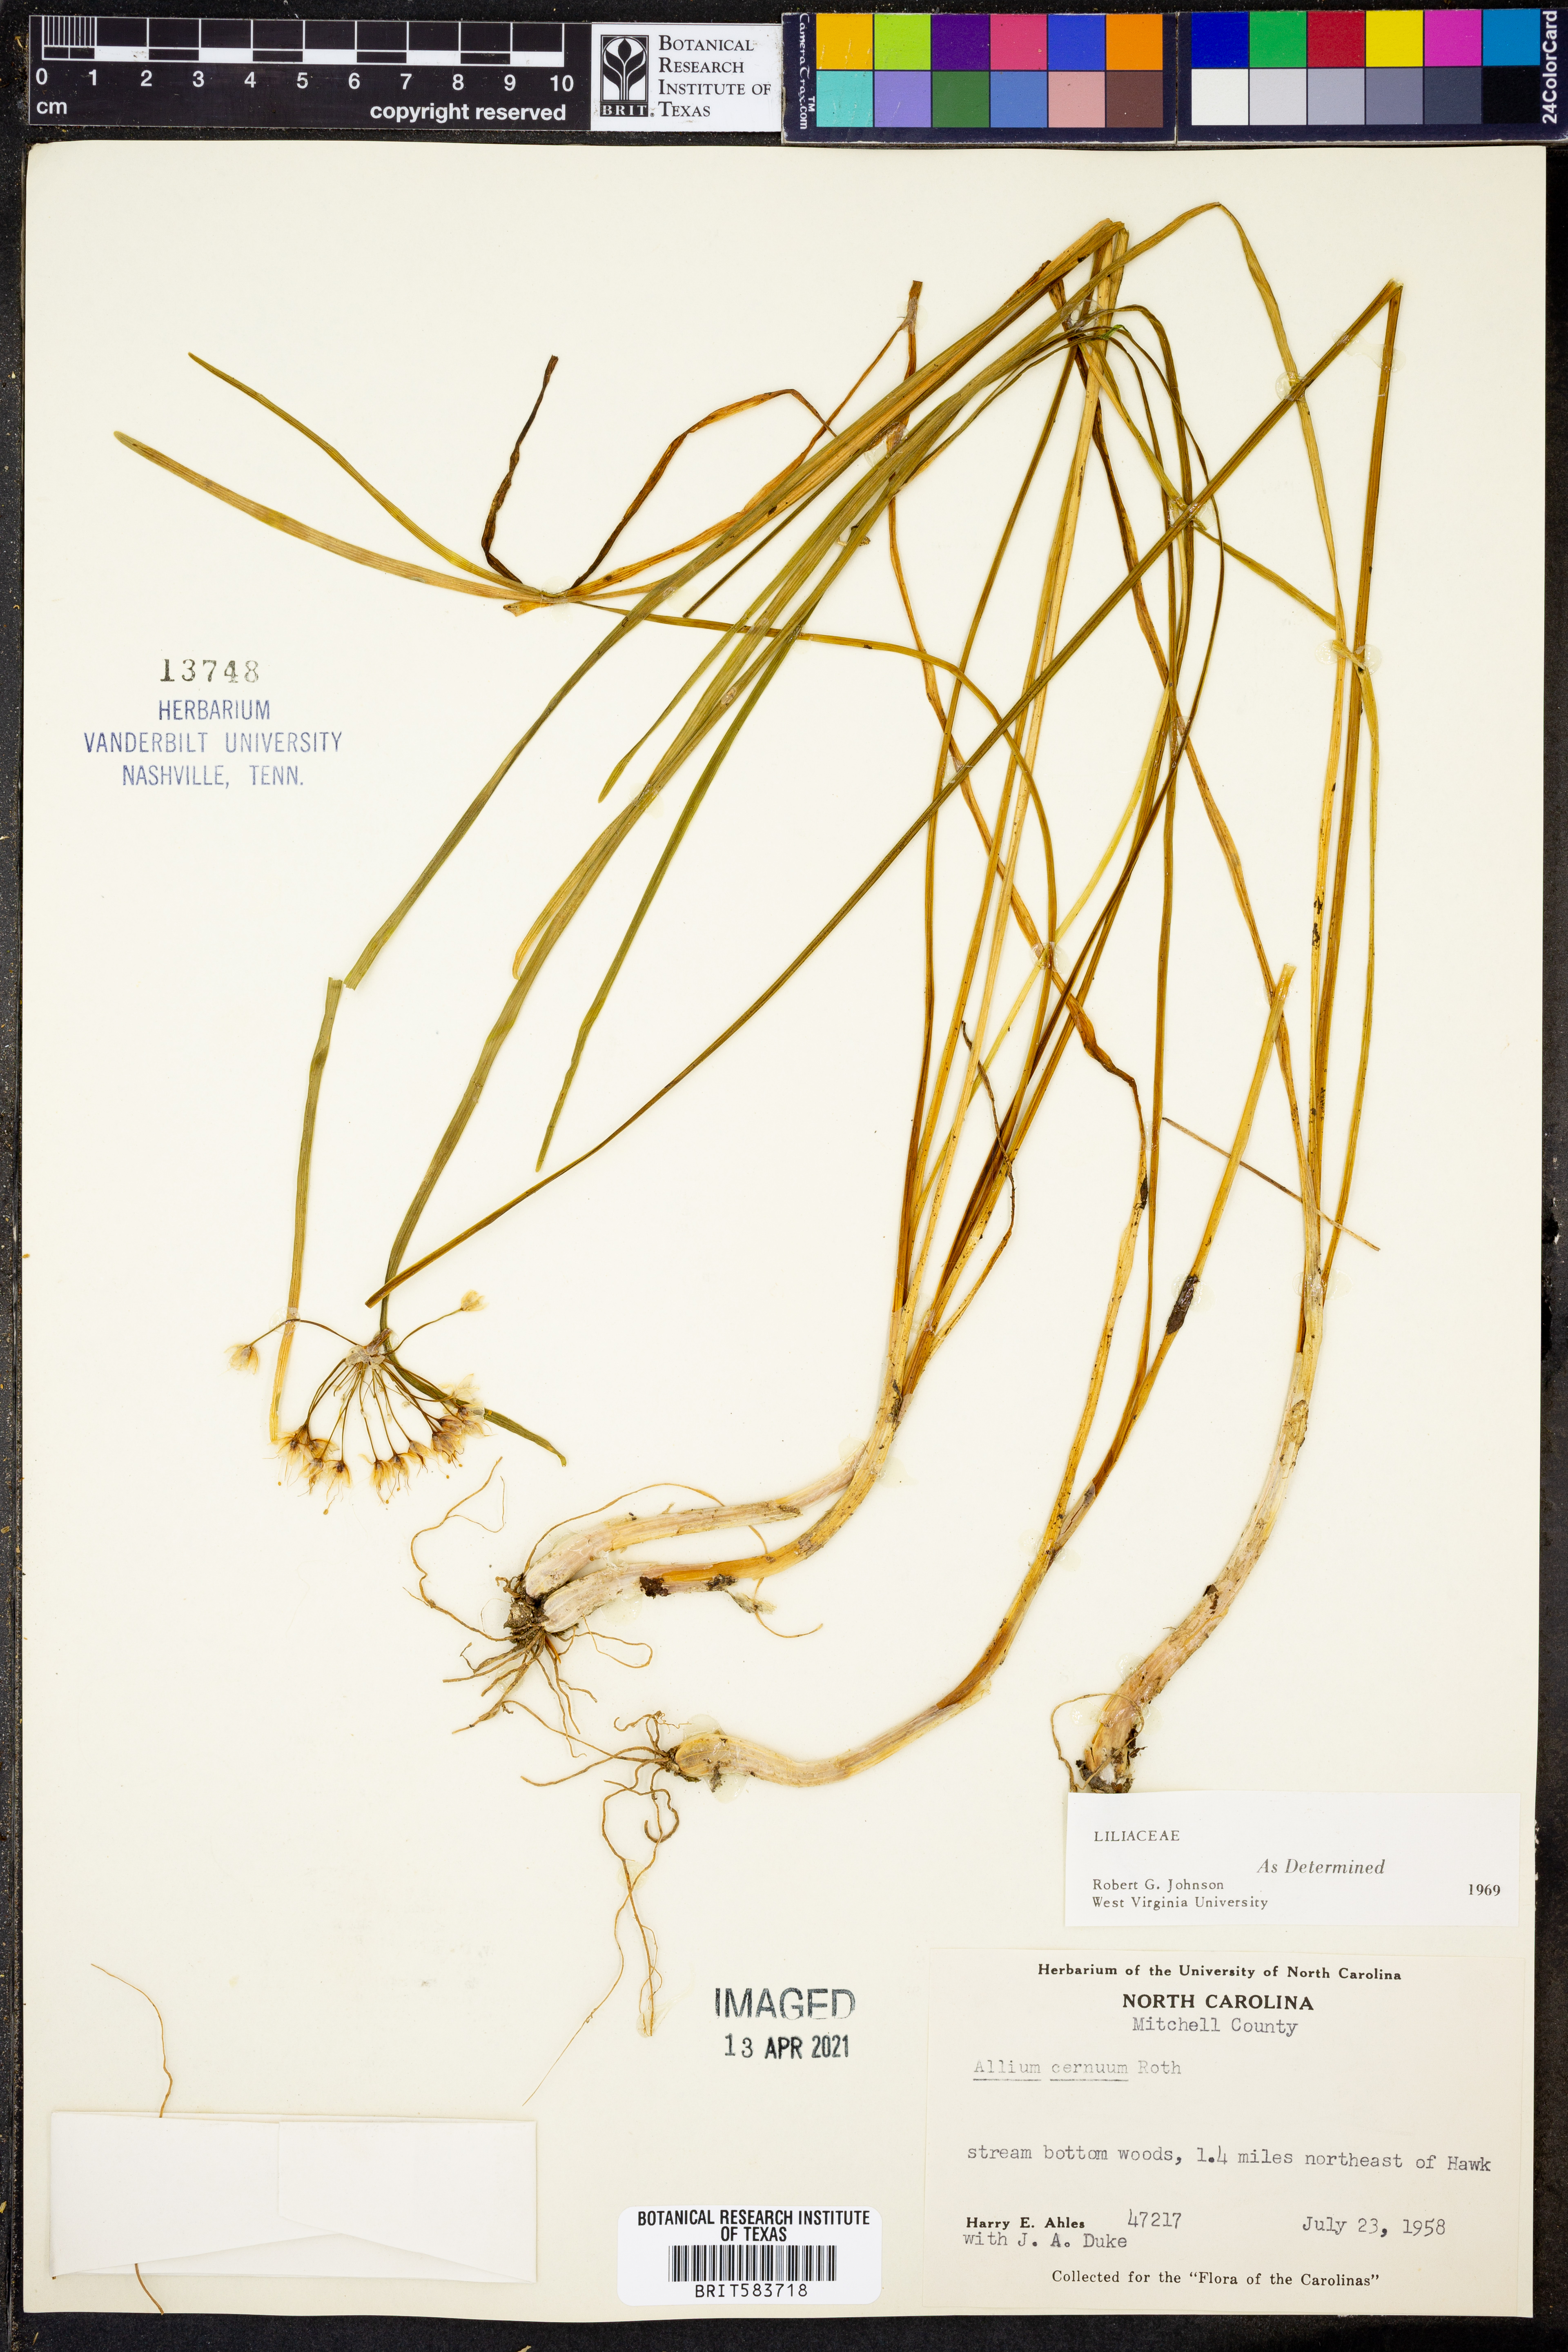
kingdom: Plantae
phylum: Tracheophyta
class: Liliopsida
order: Asparagales
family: Amaryllidaceae
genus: Allium
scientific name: Allium cernuum
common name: Nodding onion
